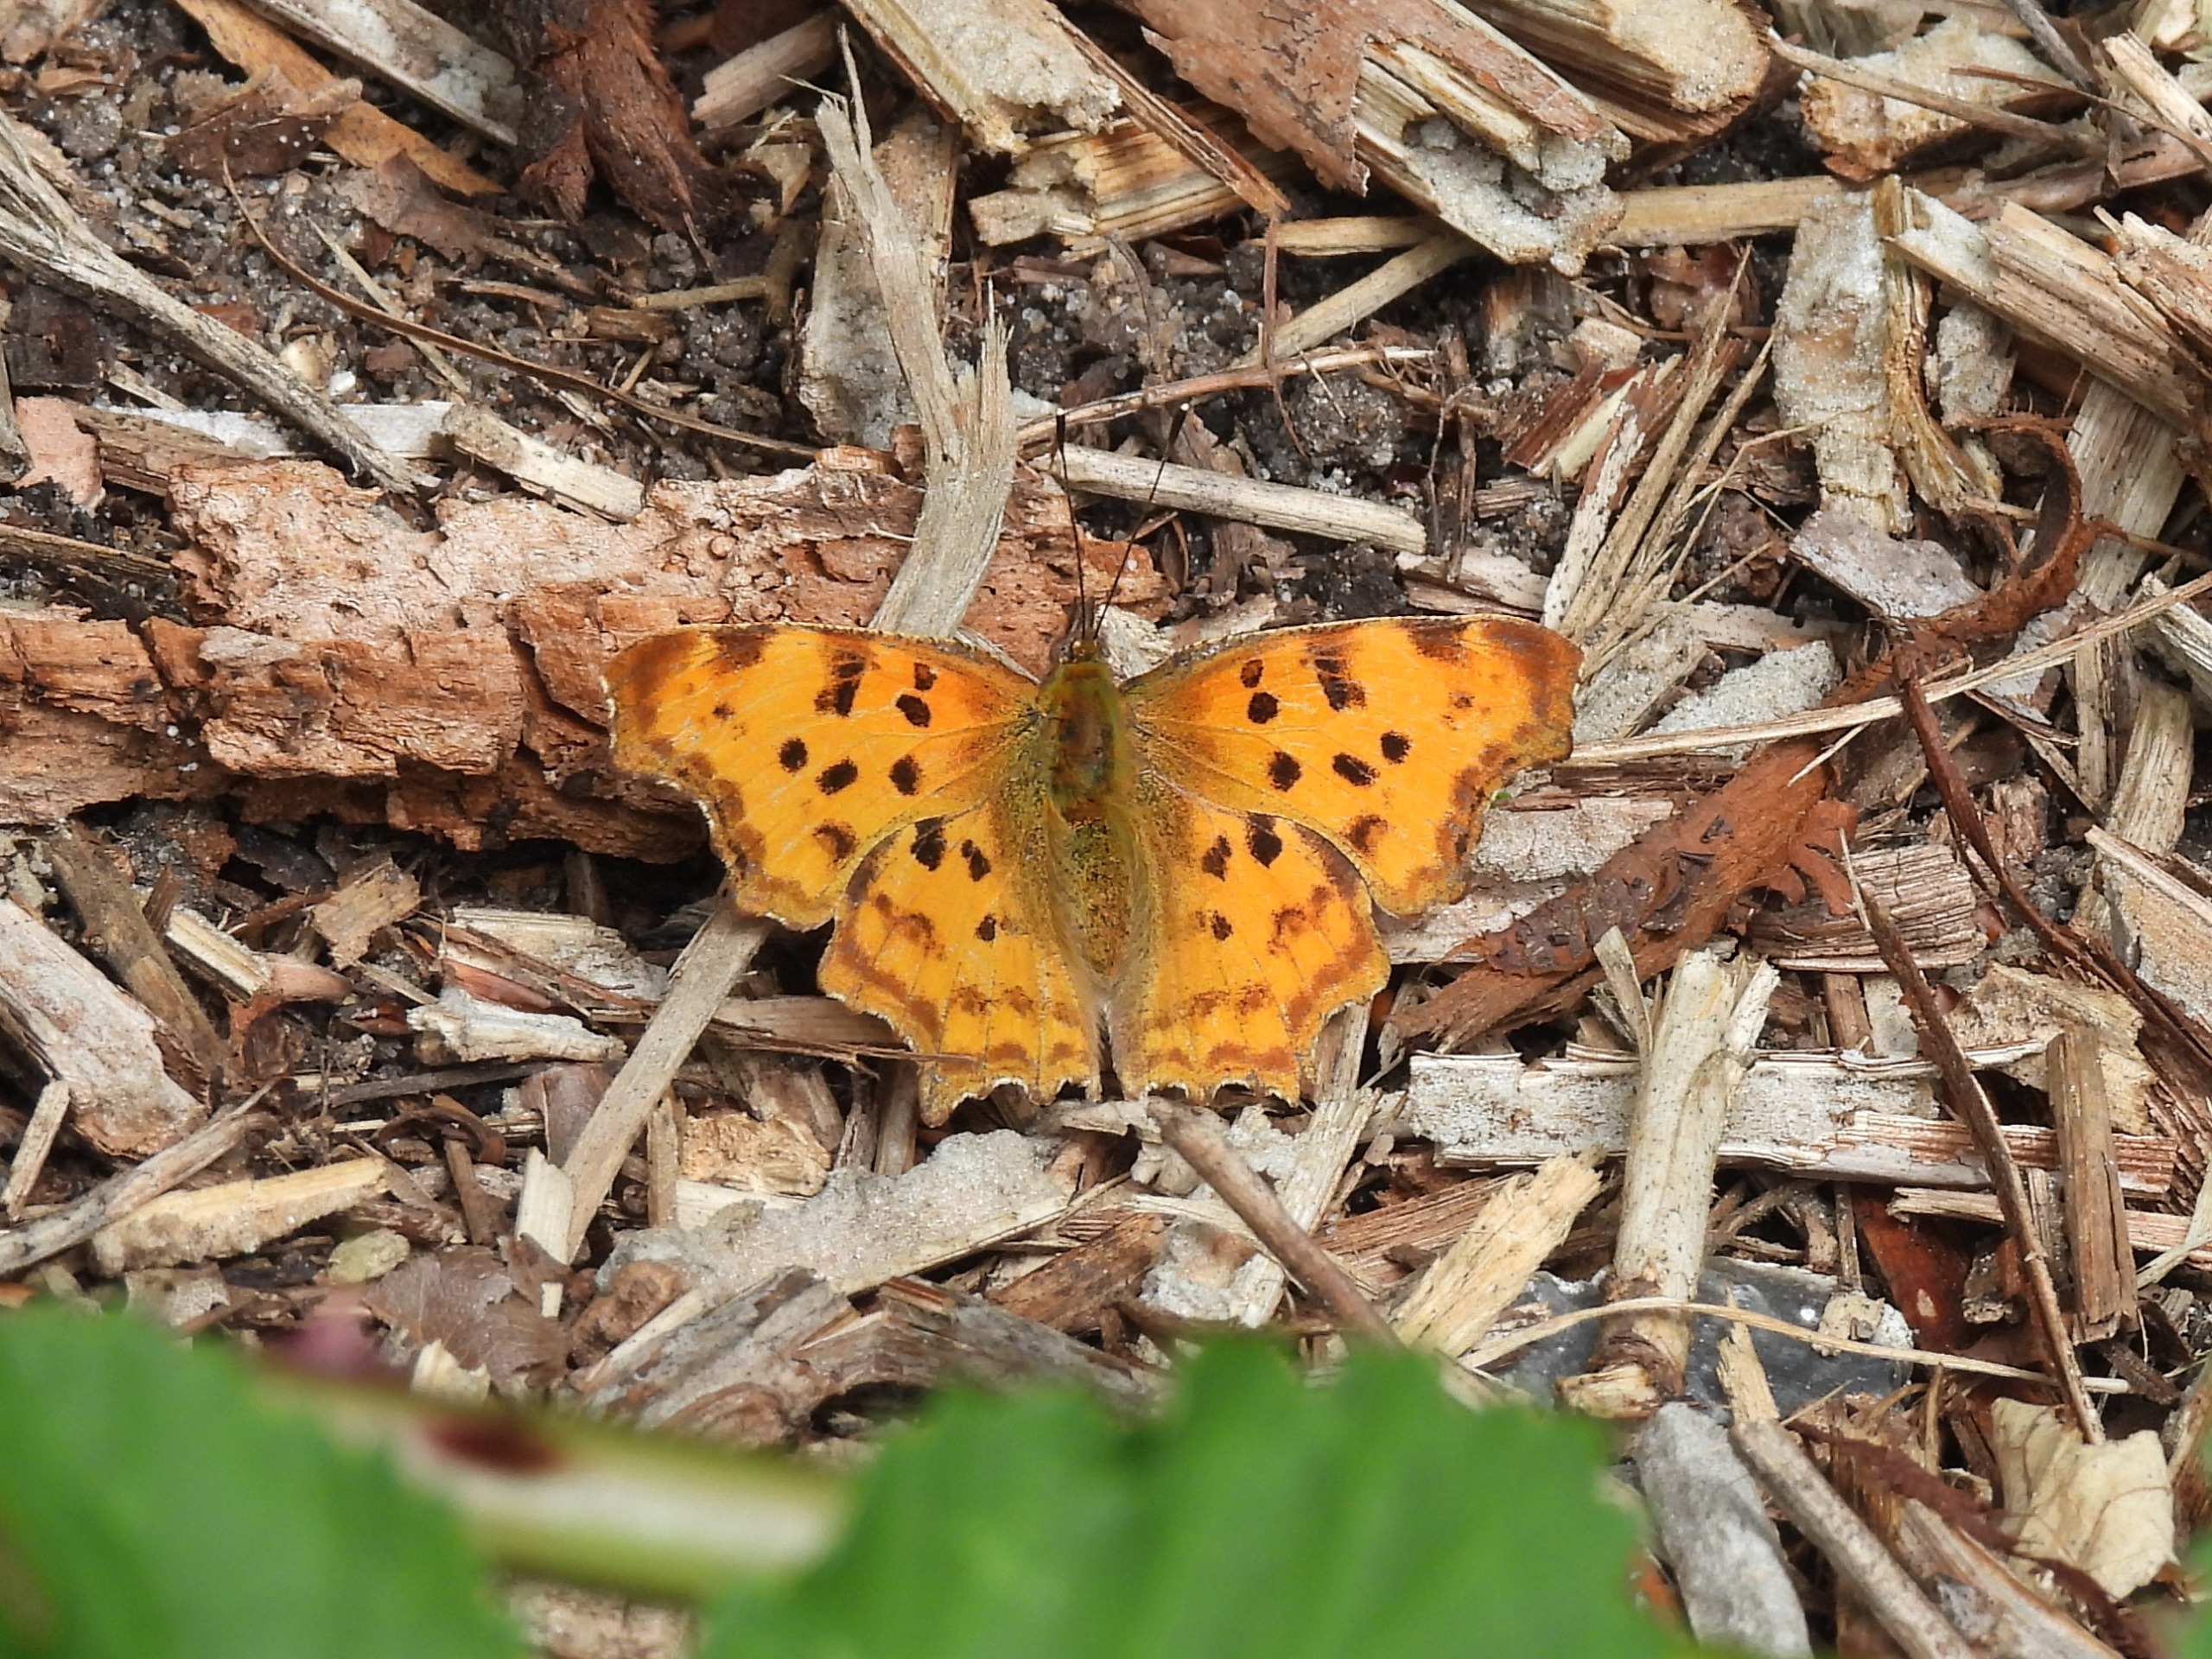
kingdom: Animalia
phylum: Arthropoda
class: Insecta
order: Lepidoptera
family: Nymphalidae
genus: Polygonia
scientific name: Polygonia c-album
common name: Det hvide C
